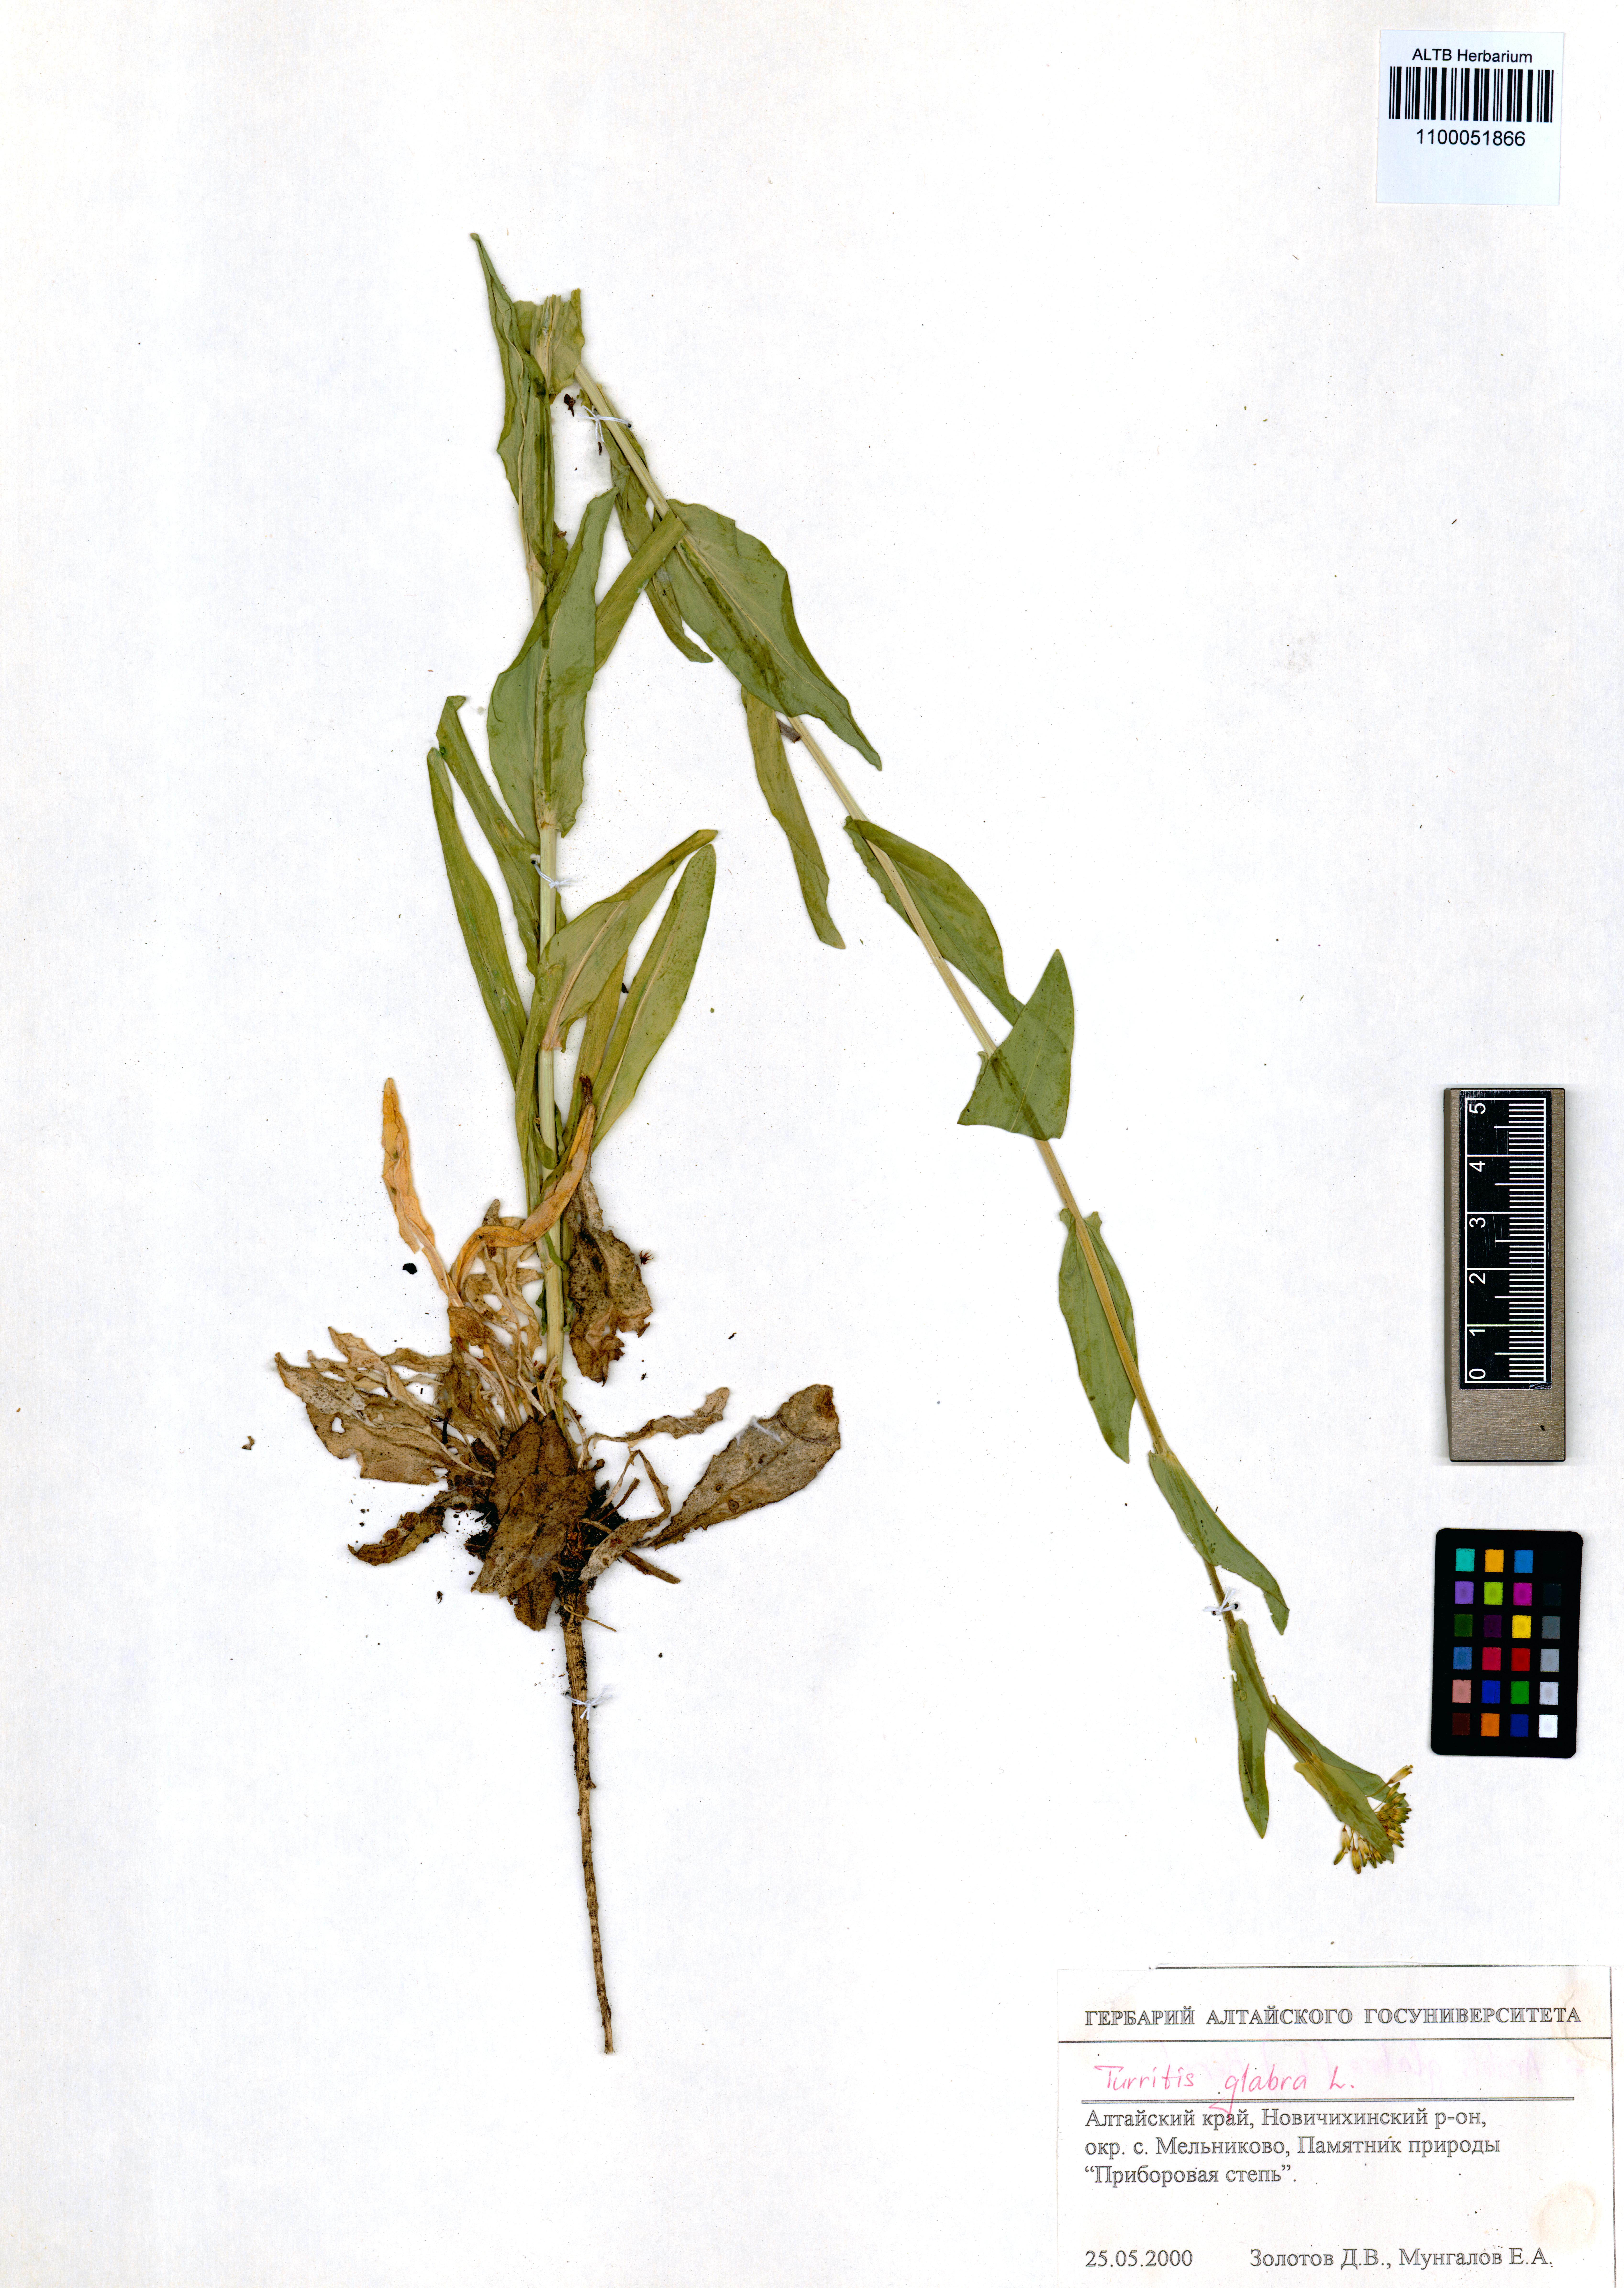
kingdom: Plantae
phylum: Tracheophyta
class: Magnoliopsida
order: Brassicales
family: Brassicaceae
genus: Turritis
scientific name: Turritis glabra
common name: Tower rockcress
